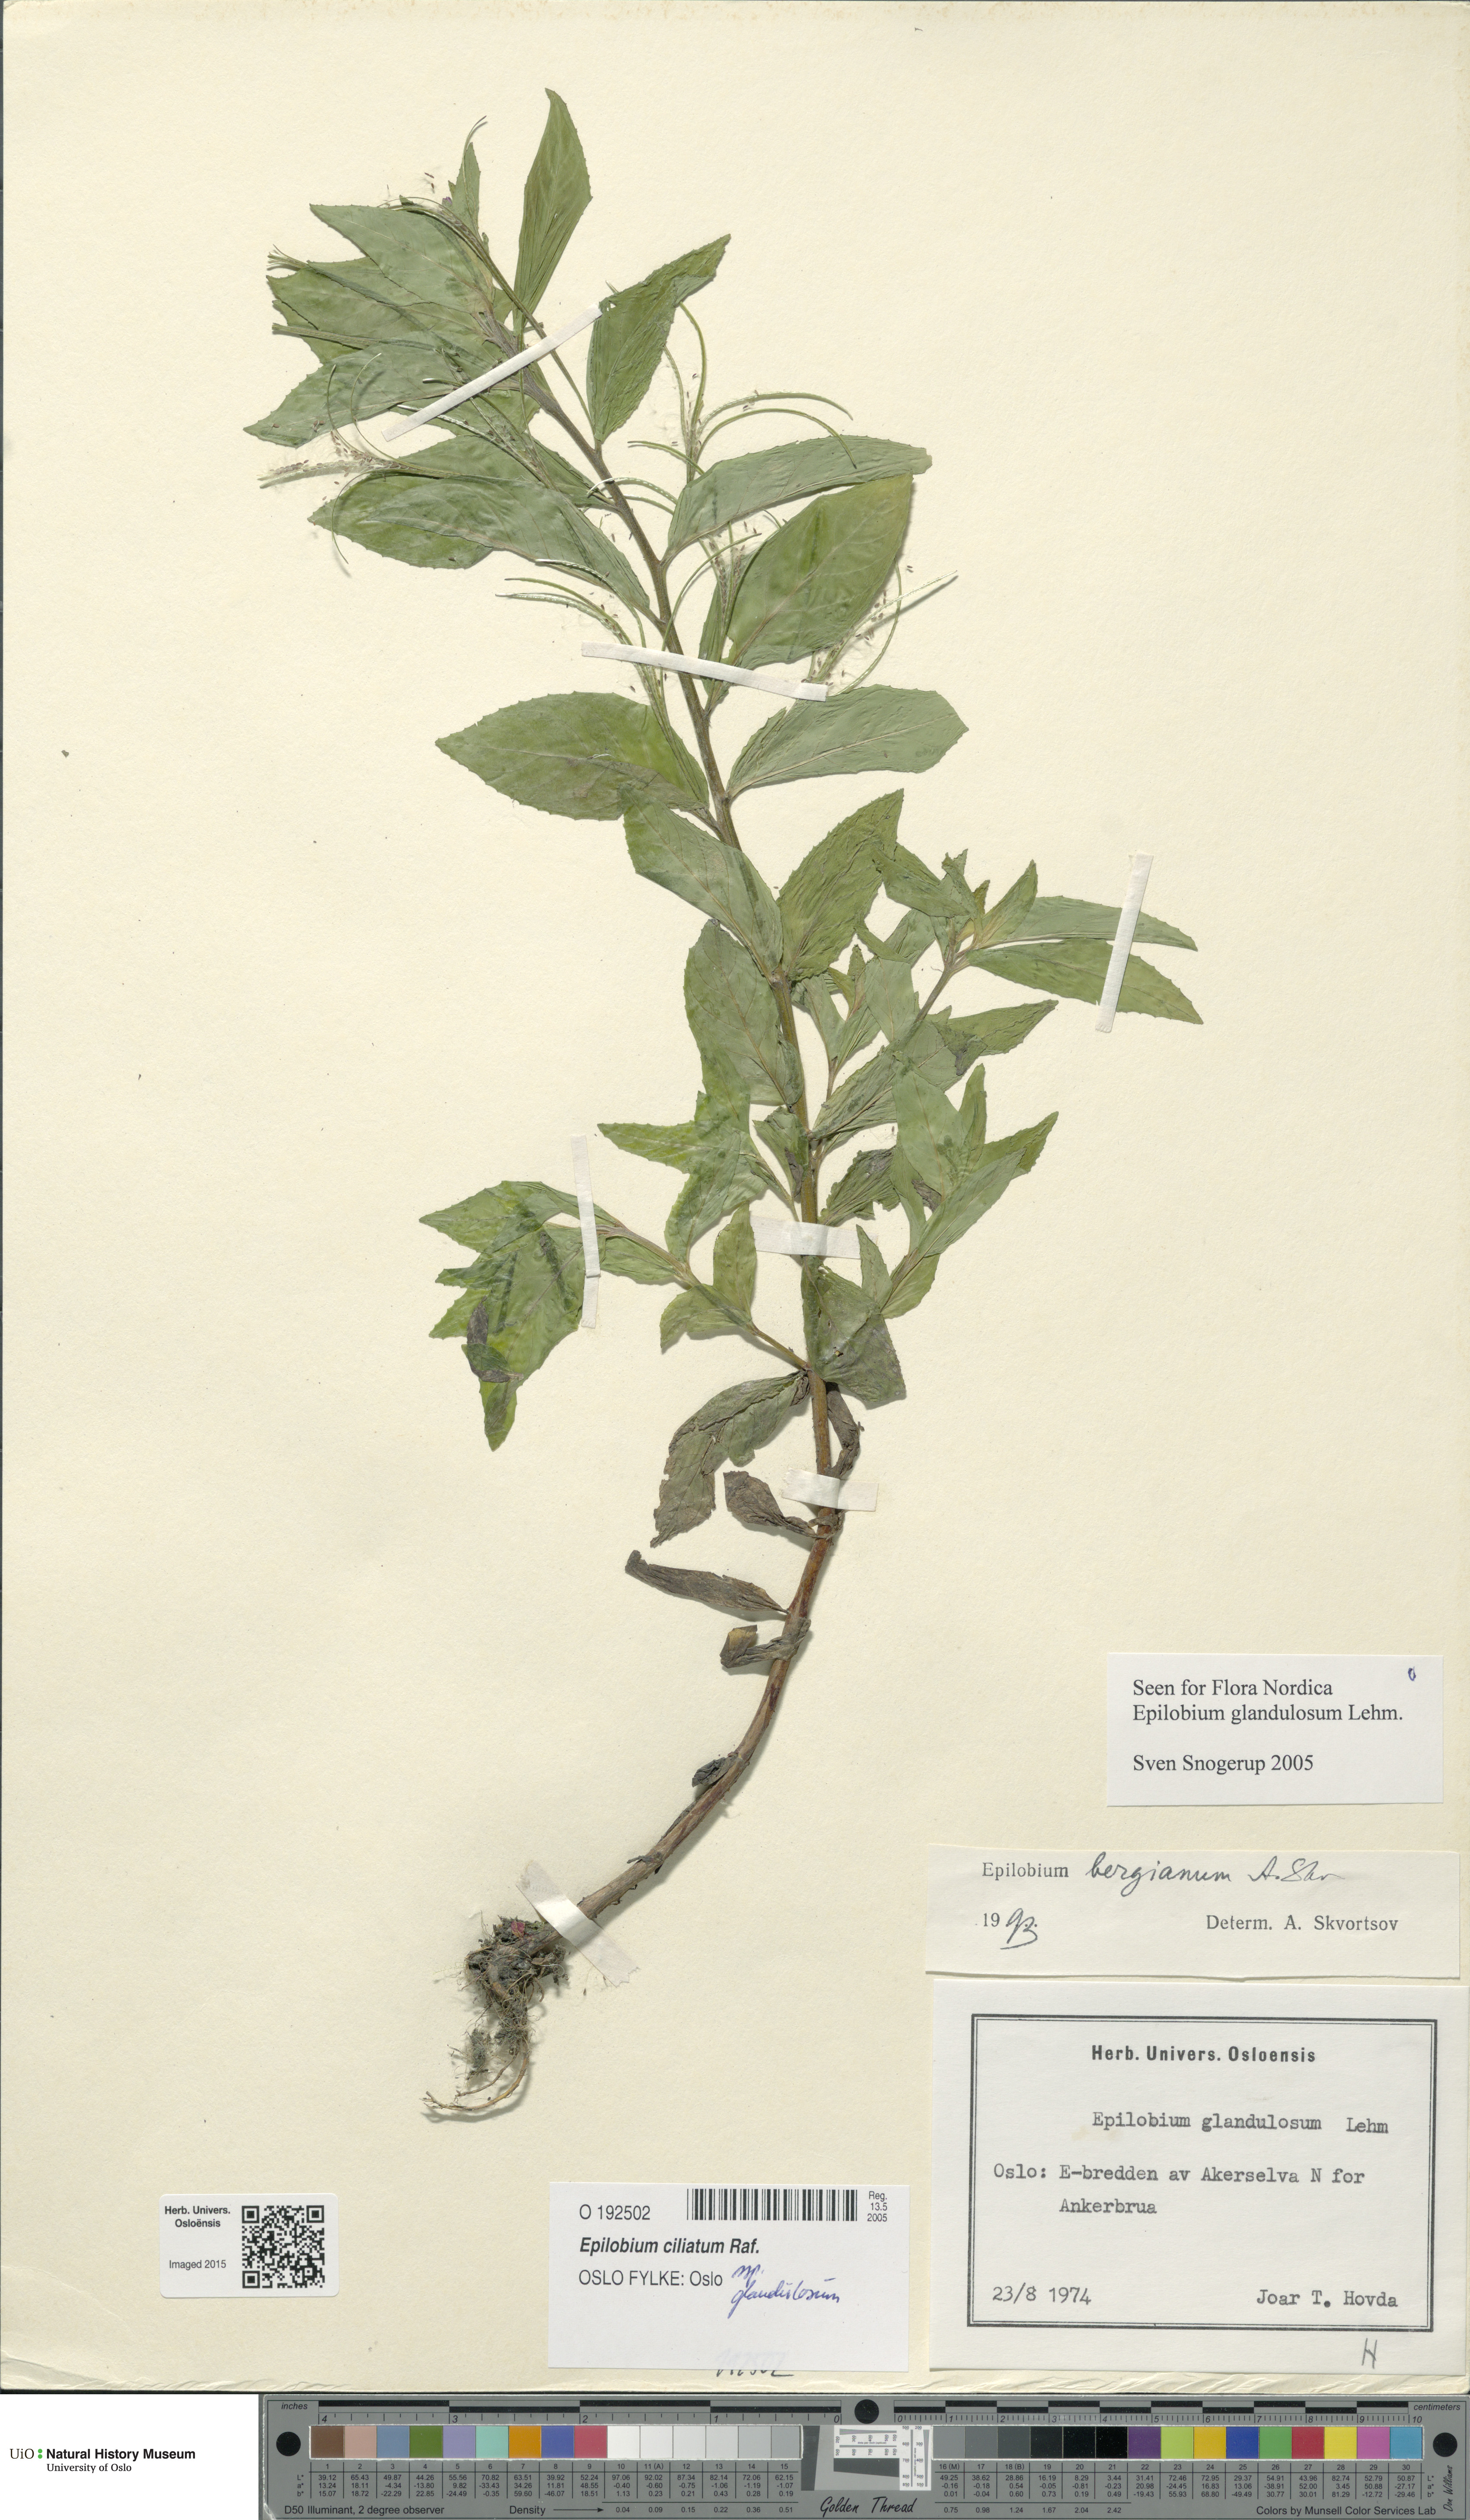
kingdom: Plantae
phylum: Tracheophyta
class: Magnoliopsida
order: Myrtales
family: Onagraceae
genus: Epilobium
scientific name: Epilobium ciliatum
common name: American willowherb
